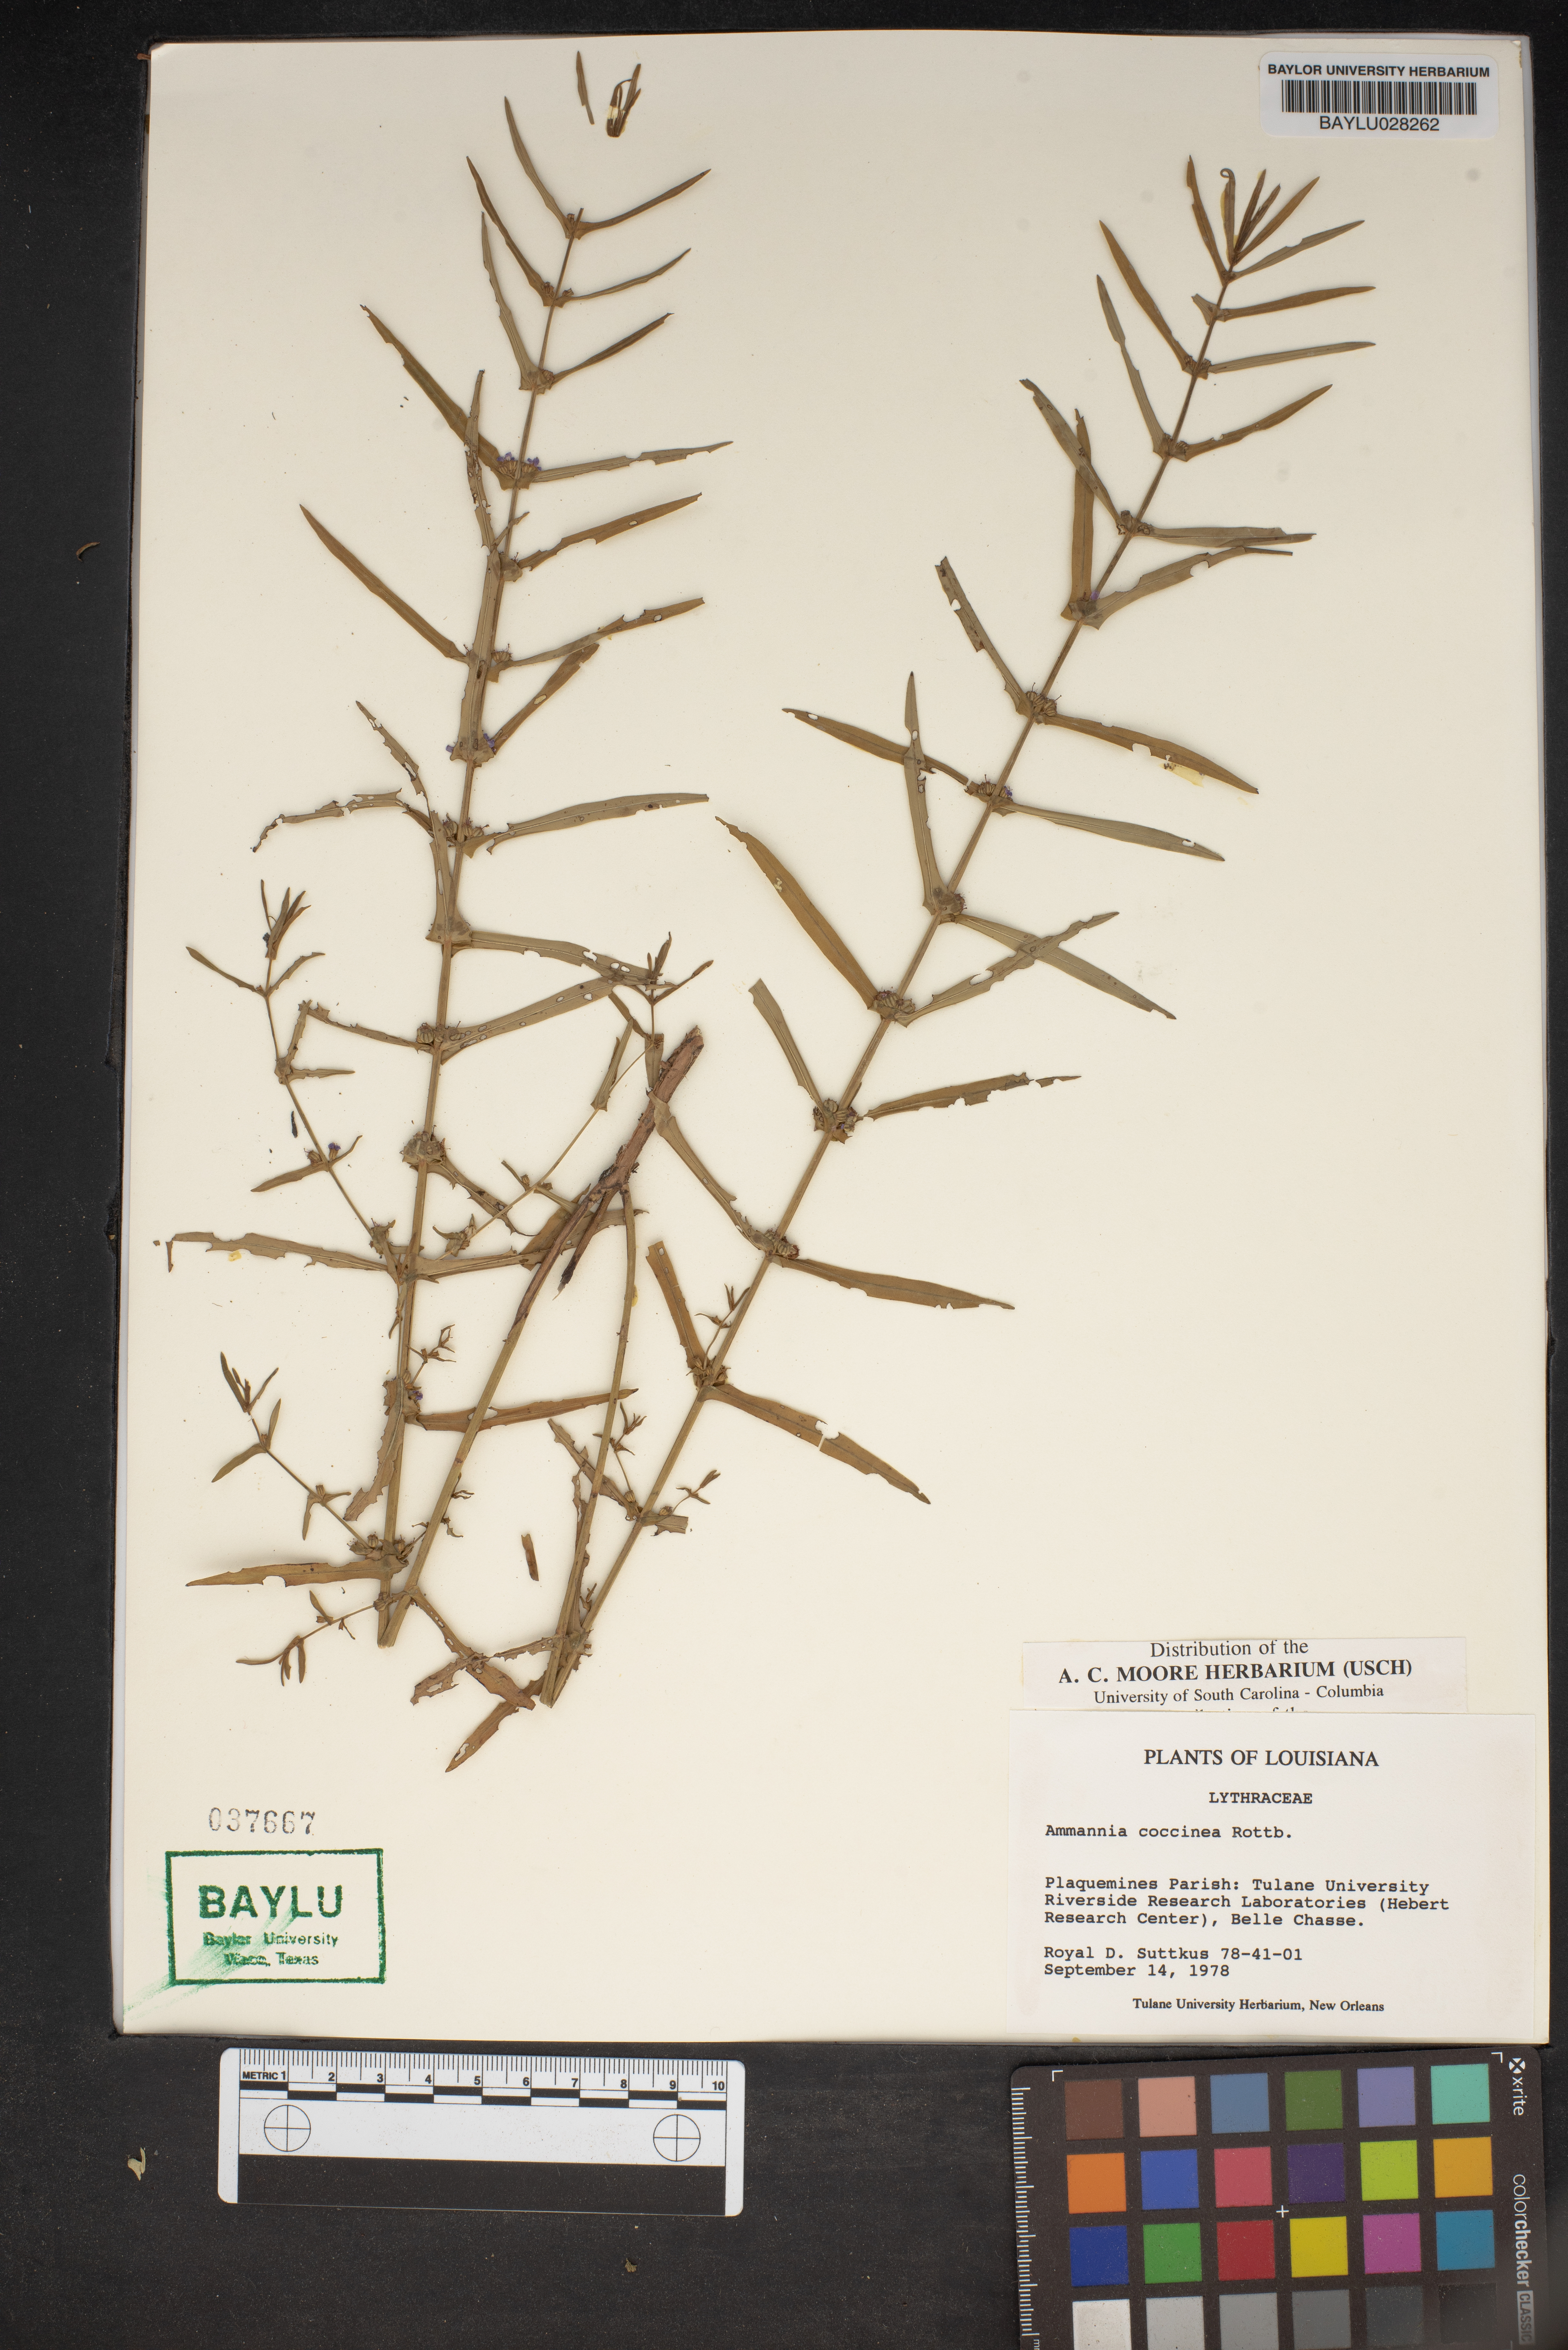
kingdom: Plantae
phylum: Tracheophyta
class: Magnoliopsida
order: Myrtales
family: Lythraceae
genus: Ammannia
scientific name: Ammannia coccinea
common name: Valley redstem
